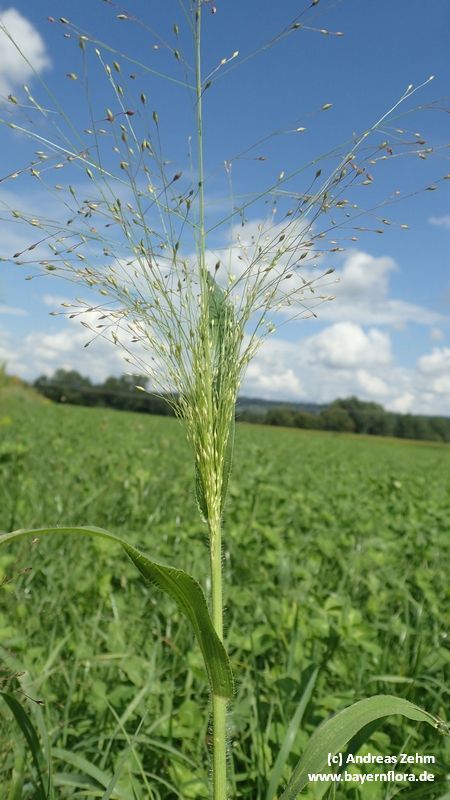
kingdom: Plantae
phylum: Tracheophyta
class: Liliopsida
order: Poales
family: Poaceae
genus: Panicum
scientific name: Panicum capillare
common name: Witch-grass
